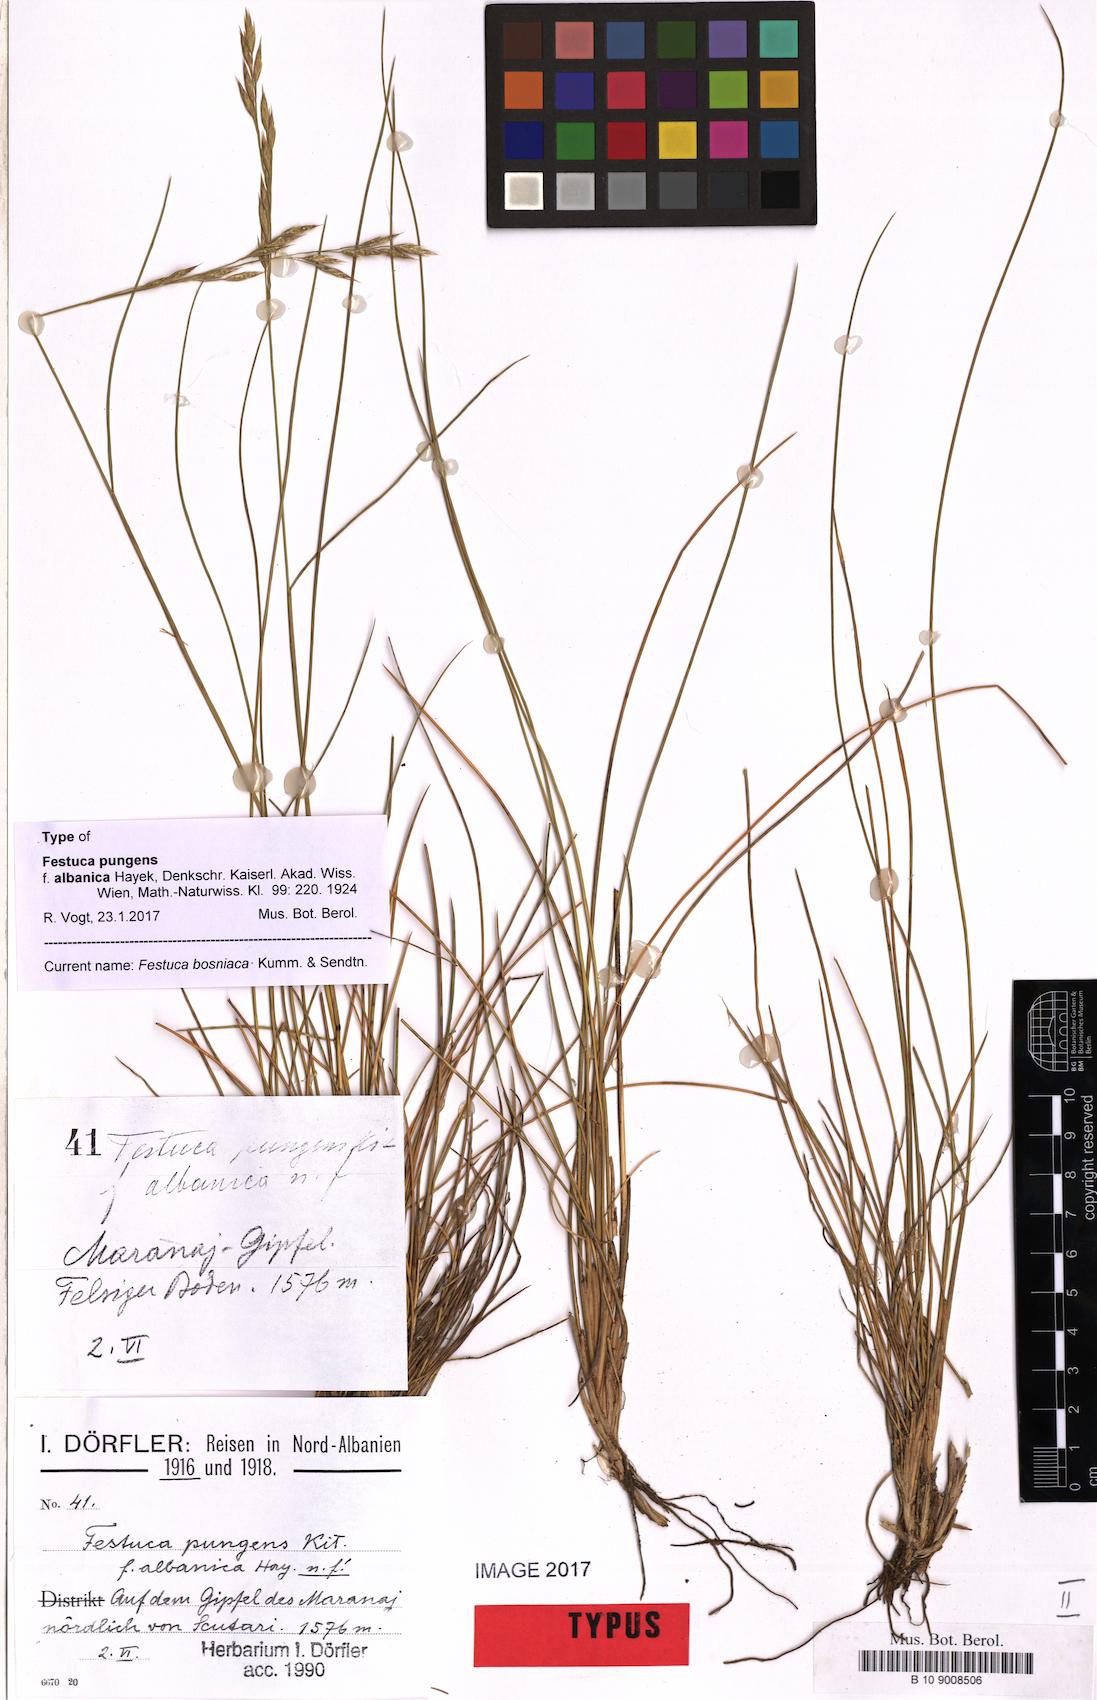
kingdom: Plantae
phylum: Tracheophyta
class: Liliopsida
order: Poales
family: Poaceae
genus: Festuca
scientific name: Festuca bosniaca
